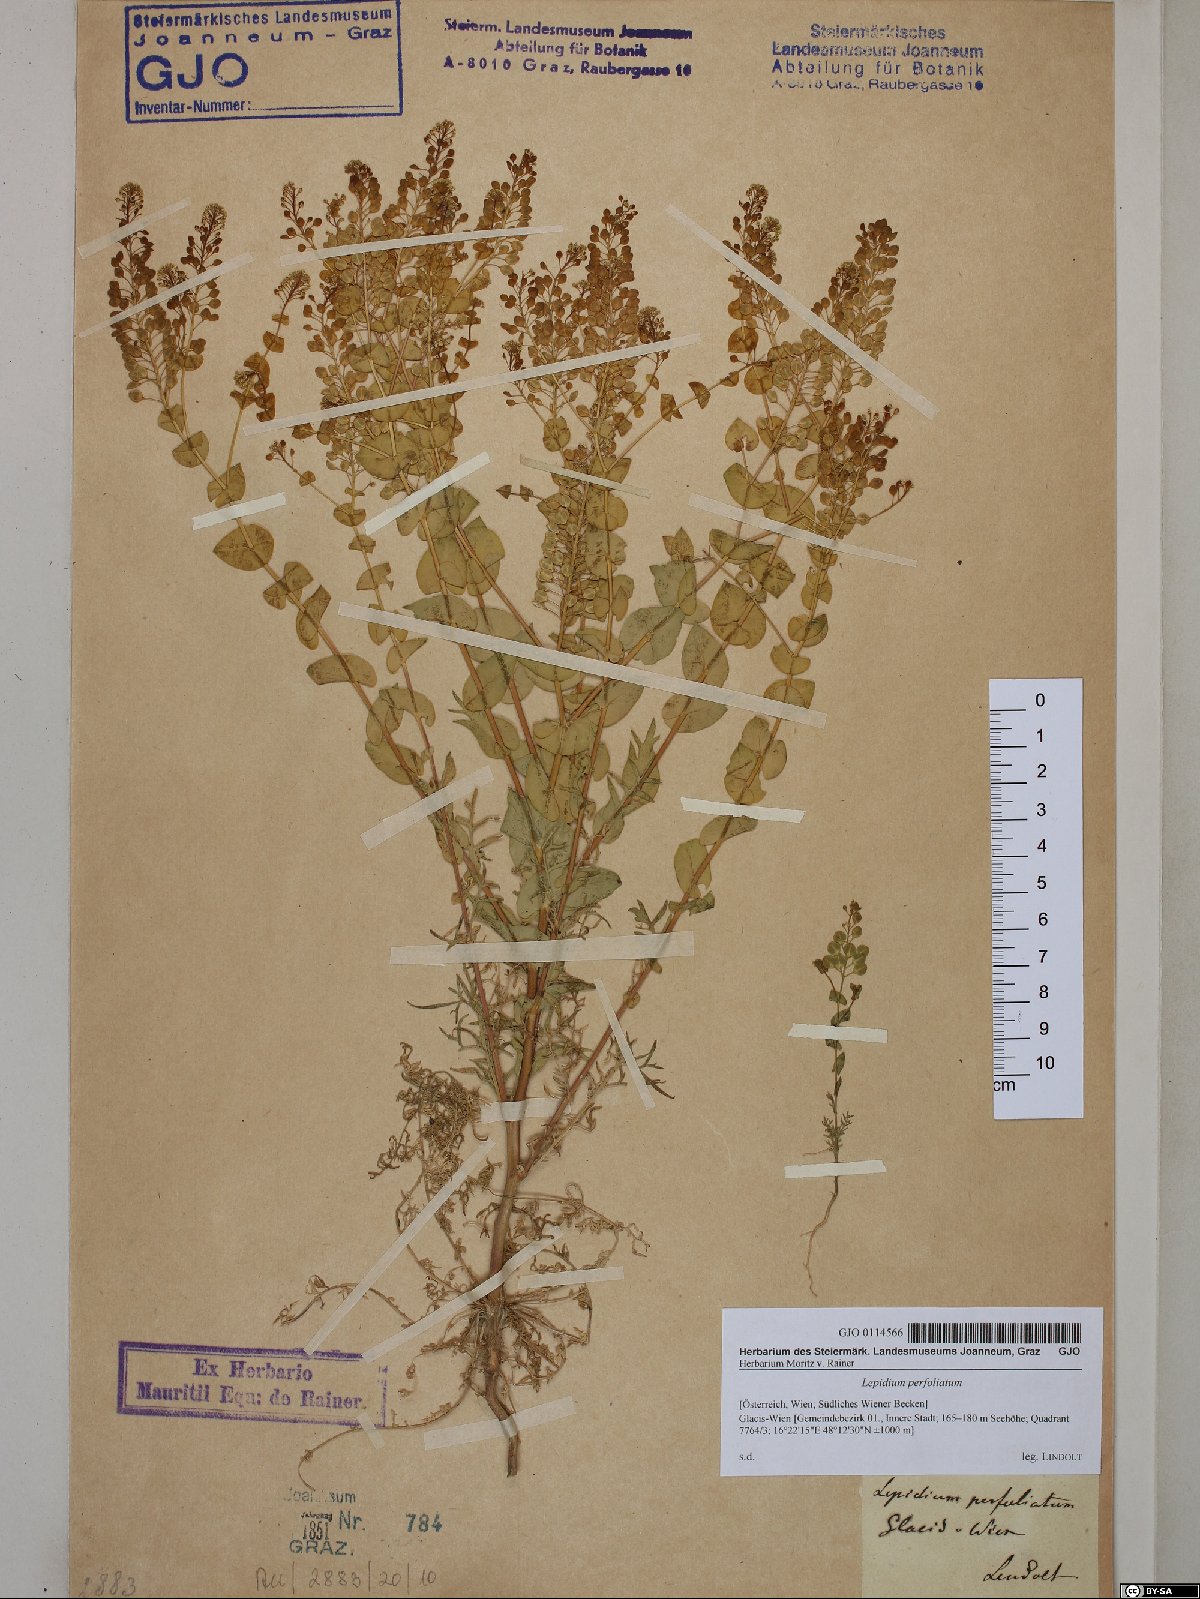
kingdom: Plantae
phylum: Tracheophyta
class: Magnoliopsida
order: Brassicales
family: Brassicaceae
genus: Lepidium
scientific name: Lepidium perfoliatum
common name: Perfoliate pepperwort
